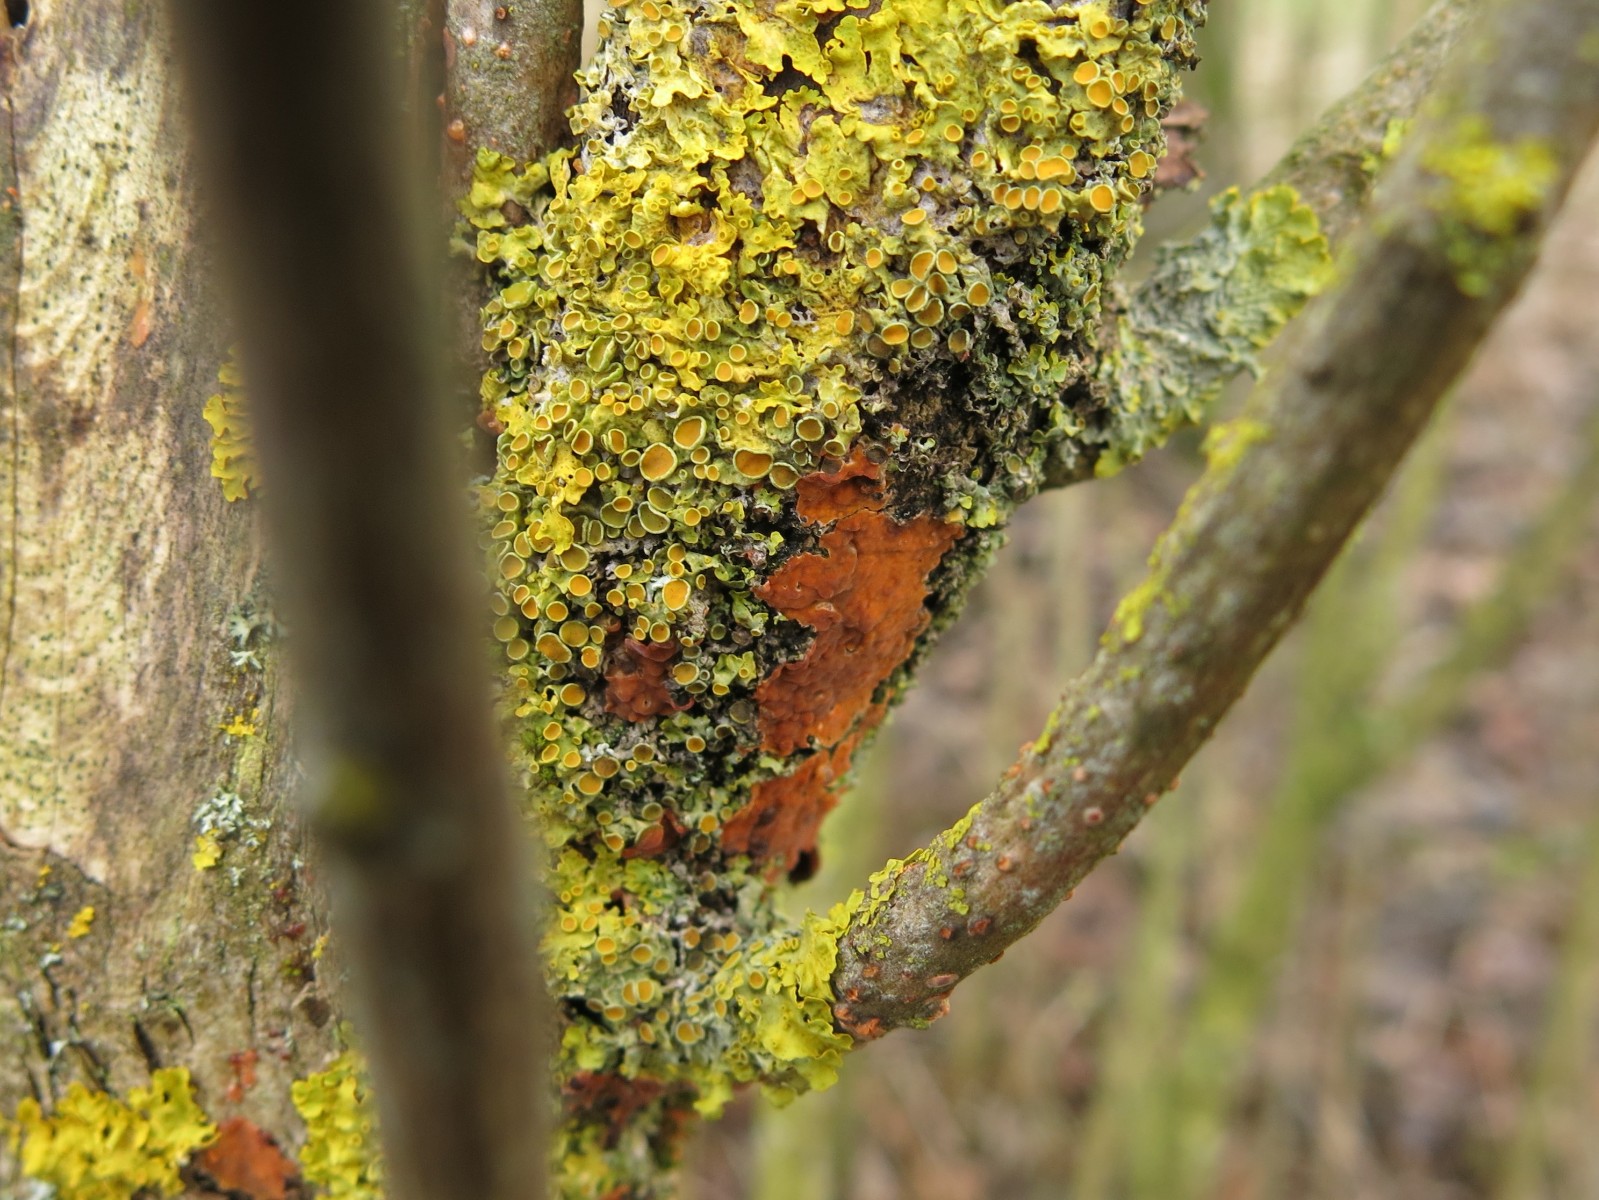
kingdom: Fungi
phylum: Basidiomycota
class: Agaricomycetes
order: Russulales
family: Peniophoraceae
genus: Peniophora
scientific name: Peniophora incarnata
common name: laksefarvet voksskind
